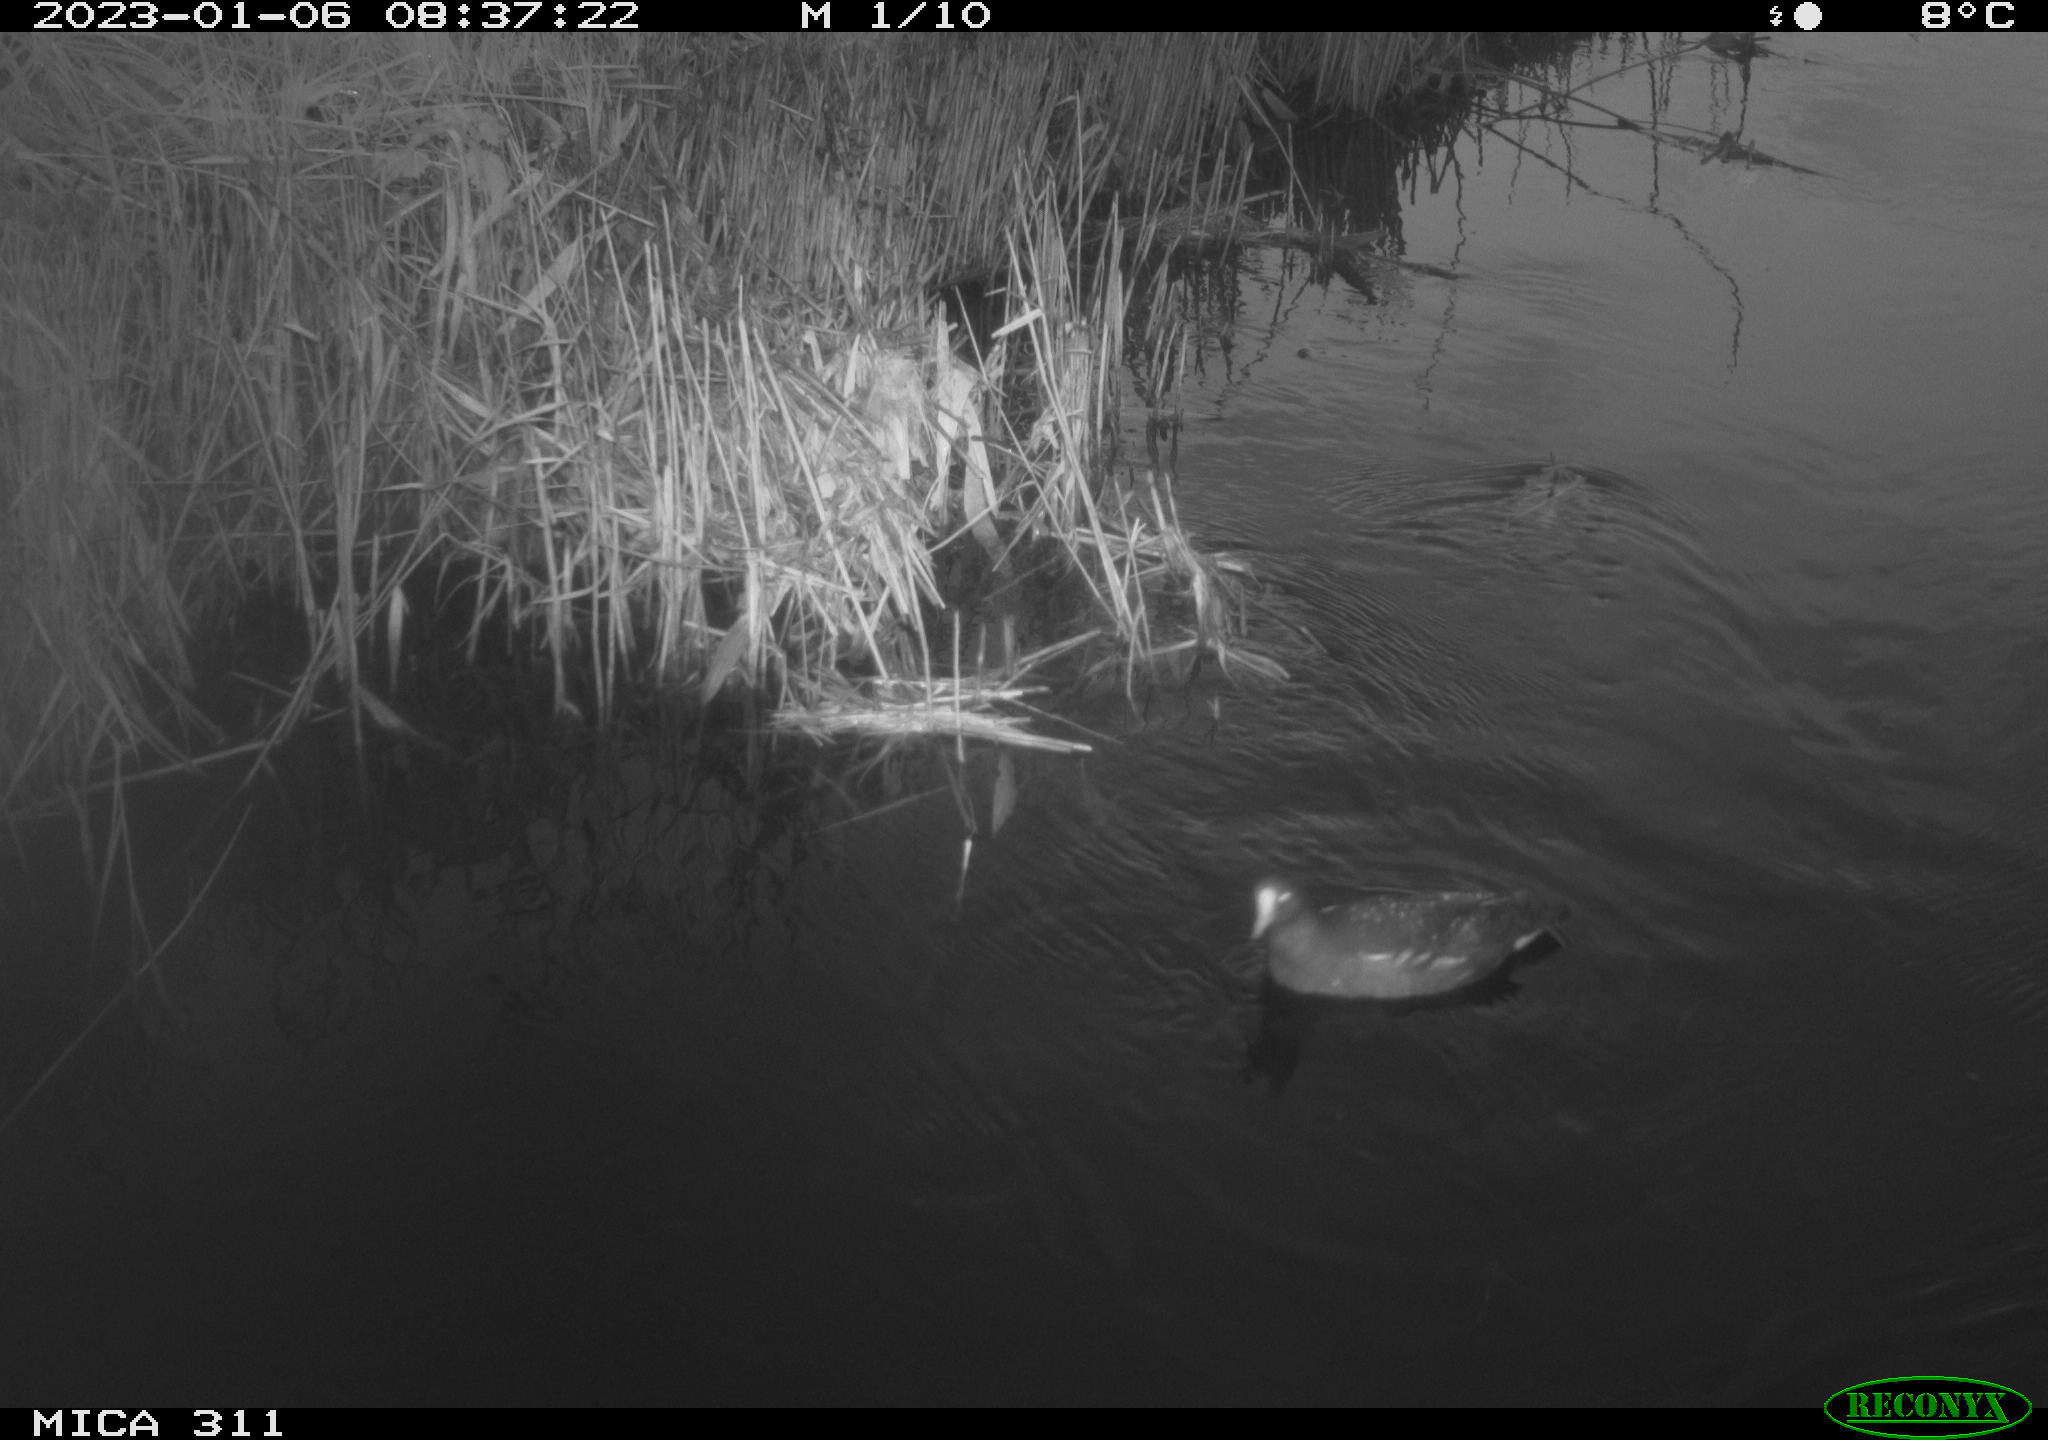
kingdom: Animalia
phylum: Chordata
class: Aves
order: Gruiformes
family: Rallidae
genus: Gallinula
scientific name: Gallinula chloropus
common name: Common moorhen
